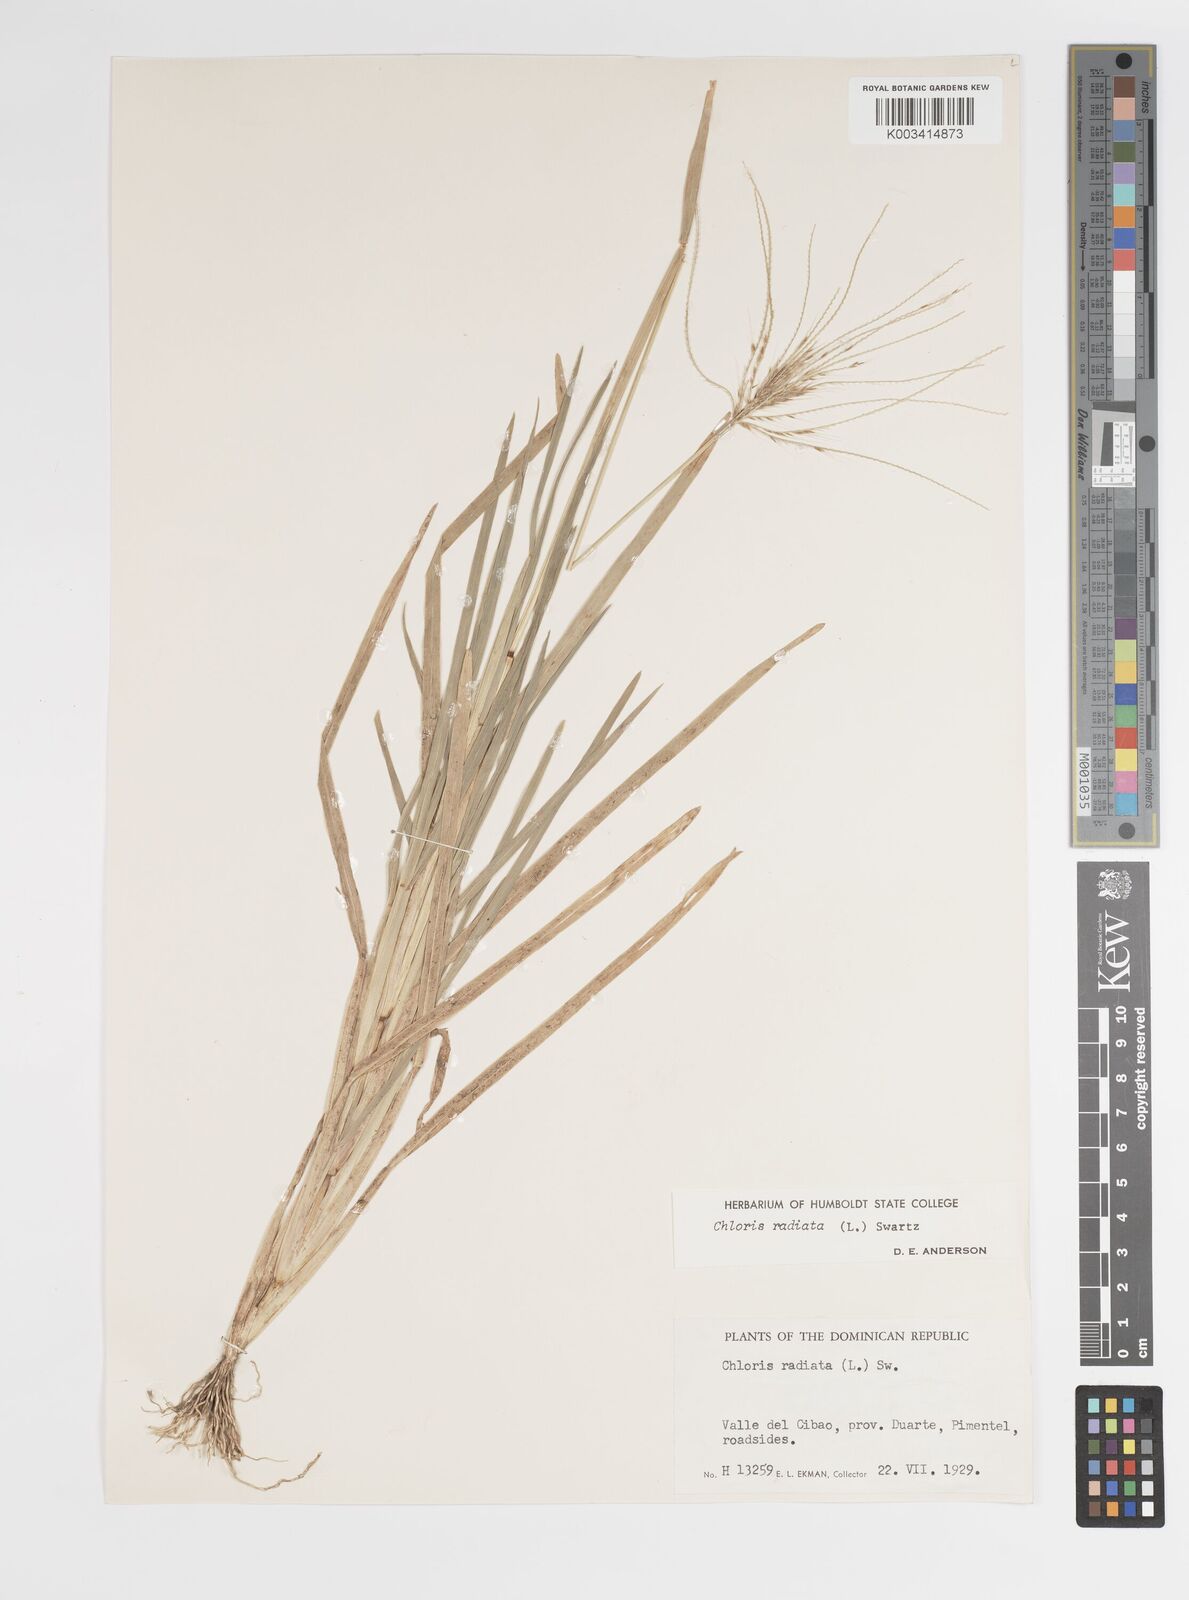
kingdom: Plantae
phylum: Tracheophyta
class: Liliopsida
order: Poales
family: Poaceae
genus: Chloris
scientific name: Chloris radiata
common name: Radiate fingergrass
